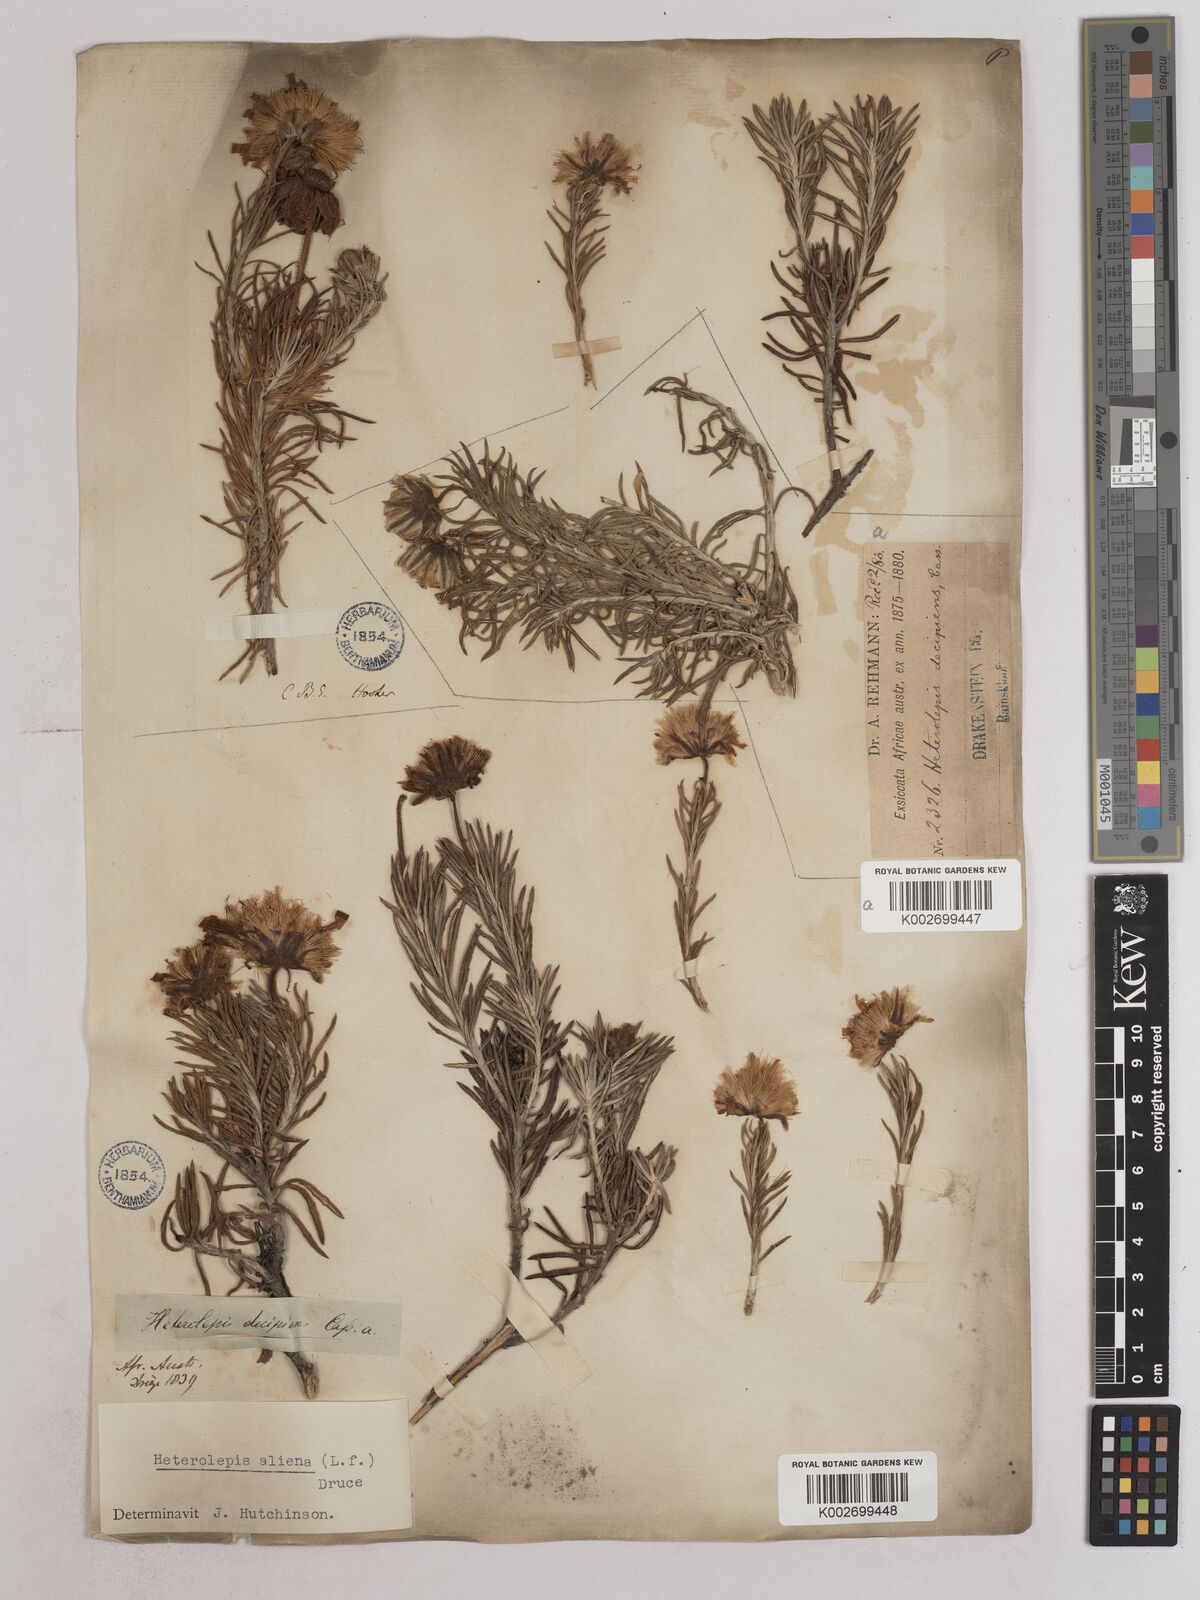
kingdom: Plantae
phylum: Tracheophyta
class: Magnoliopsida
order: Asterales
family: Asteraceae
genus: Heterolepis
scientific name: Heterolepis aliena
